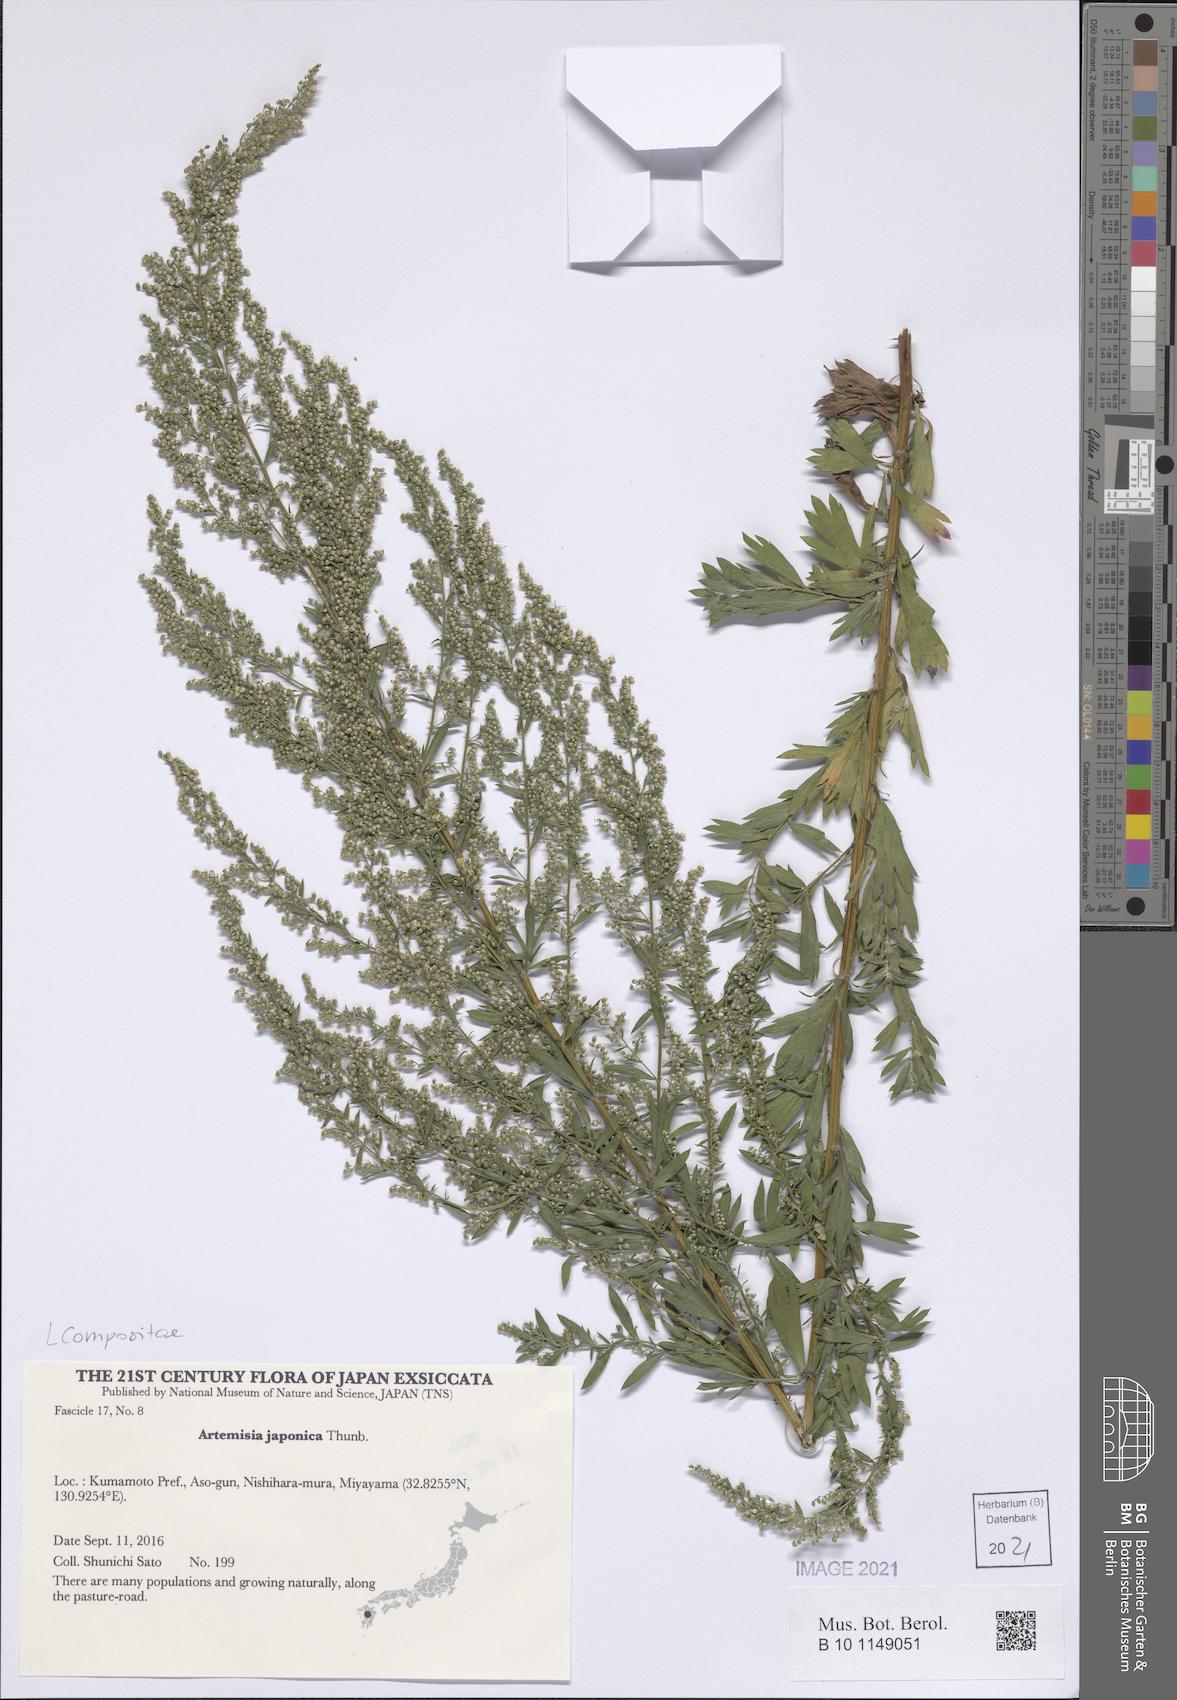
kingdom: Plantae
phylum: Tracheophyta
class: Magnoliopsida
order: Asterales
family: Asteraceae
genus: Artemisia
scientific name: Artemisia japonica
